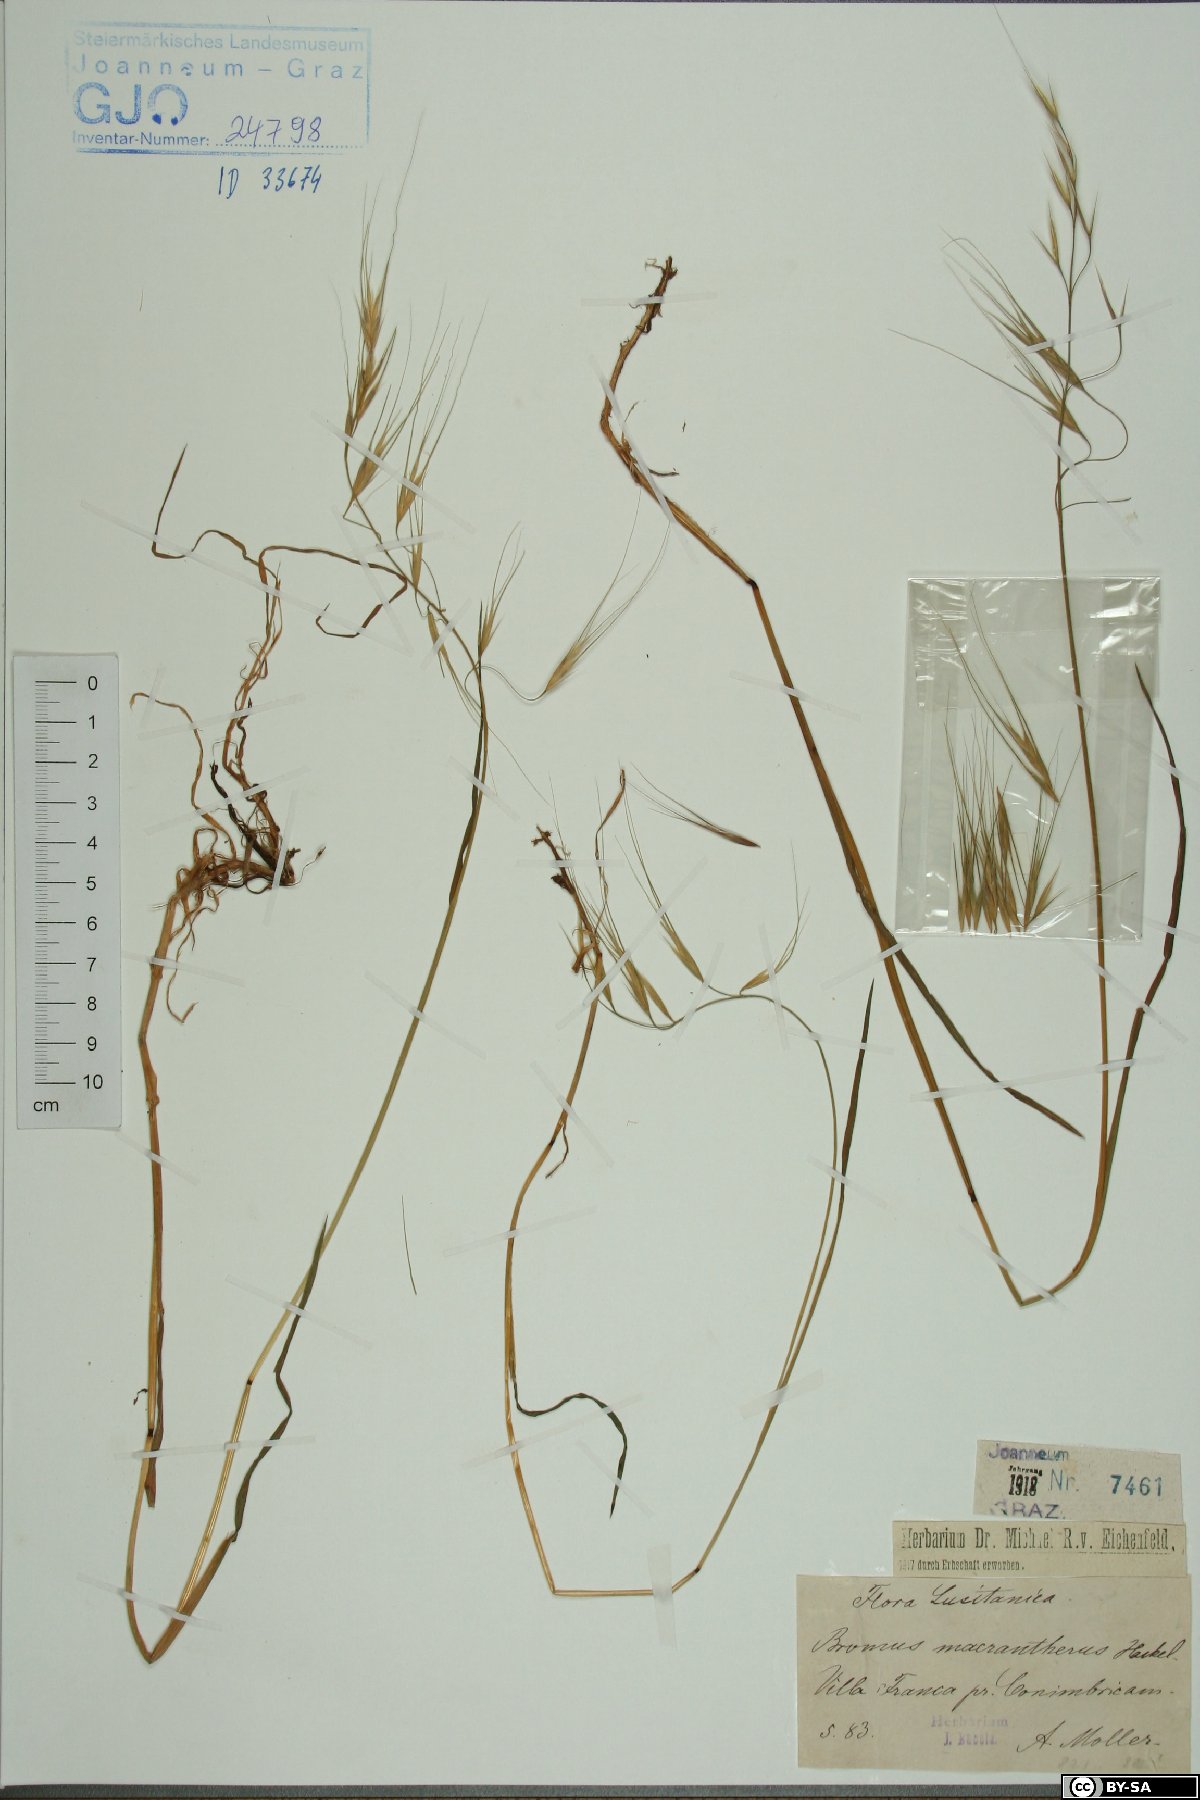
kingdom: Plantae
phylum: Tracheophyta
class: Liliopsida
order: Poales
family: Poaceae
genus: Bromus
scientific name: Bromus diandrus
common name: Ripgut brome
